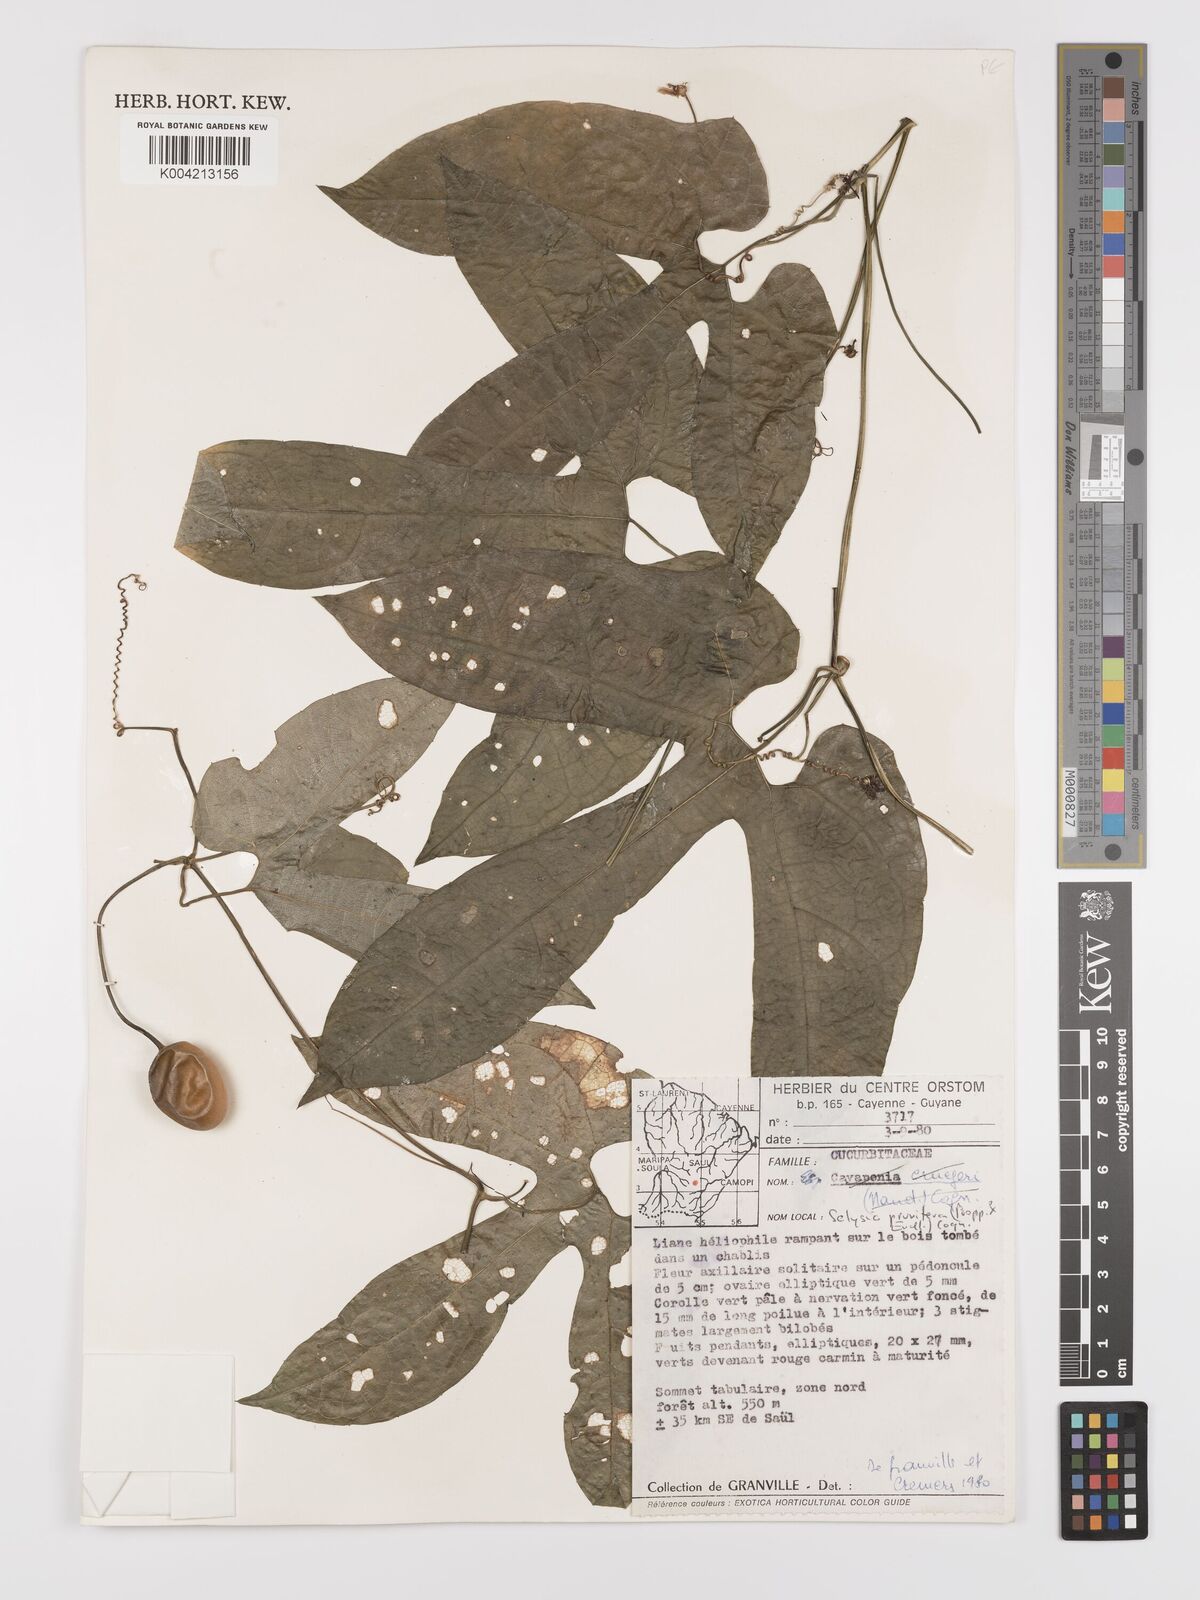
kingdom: Plantae
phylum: Tracheophyta
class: Magnoliopsida
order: Cucurbitales
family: Cucurbitaceae
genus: Cayaponia
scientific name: Cayaponia prunifera
